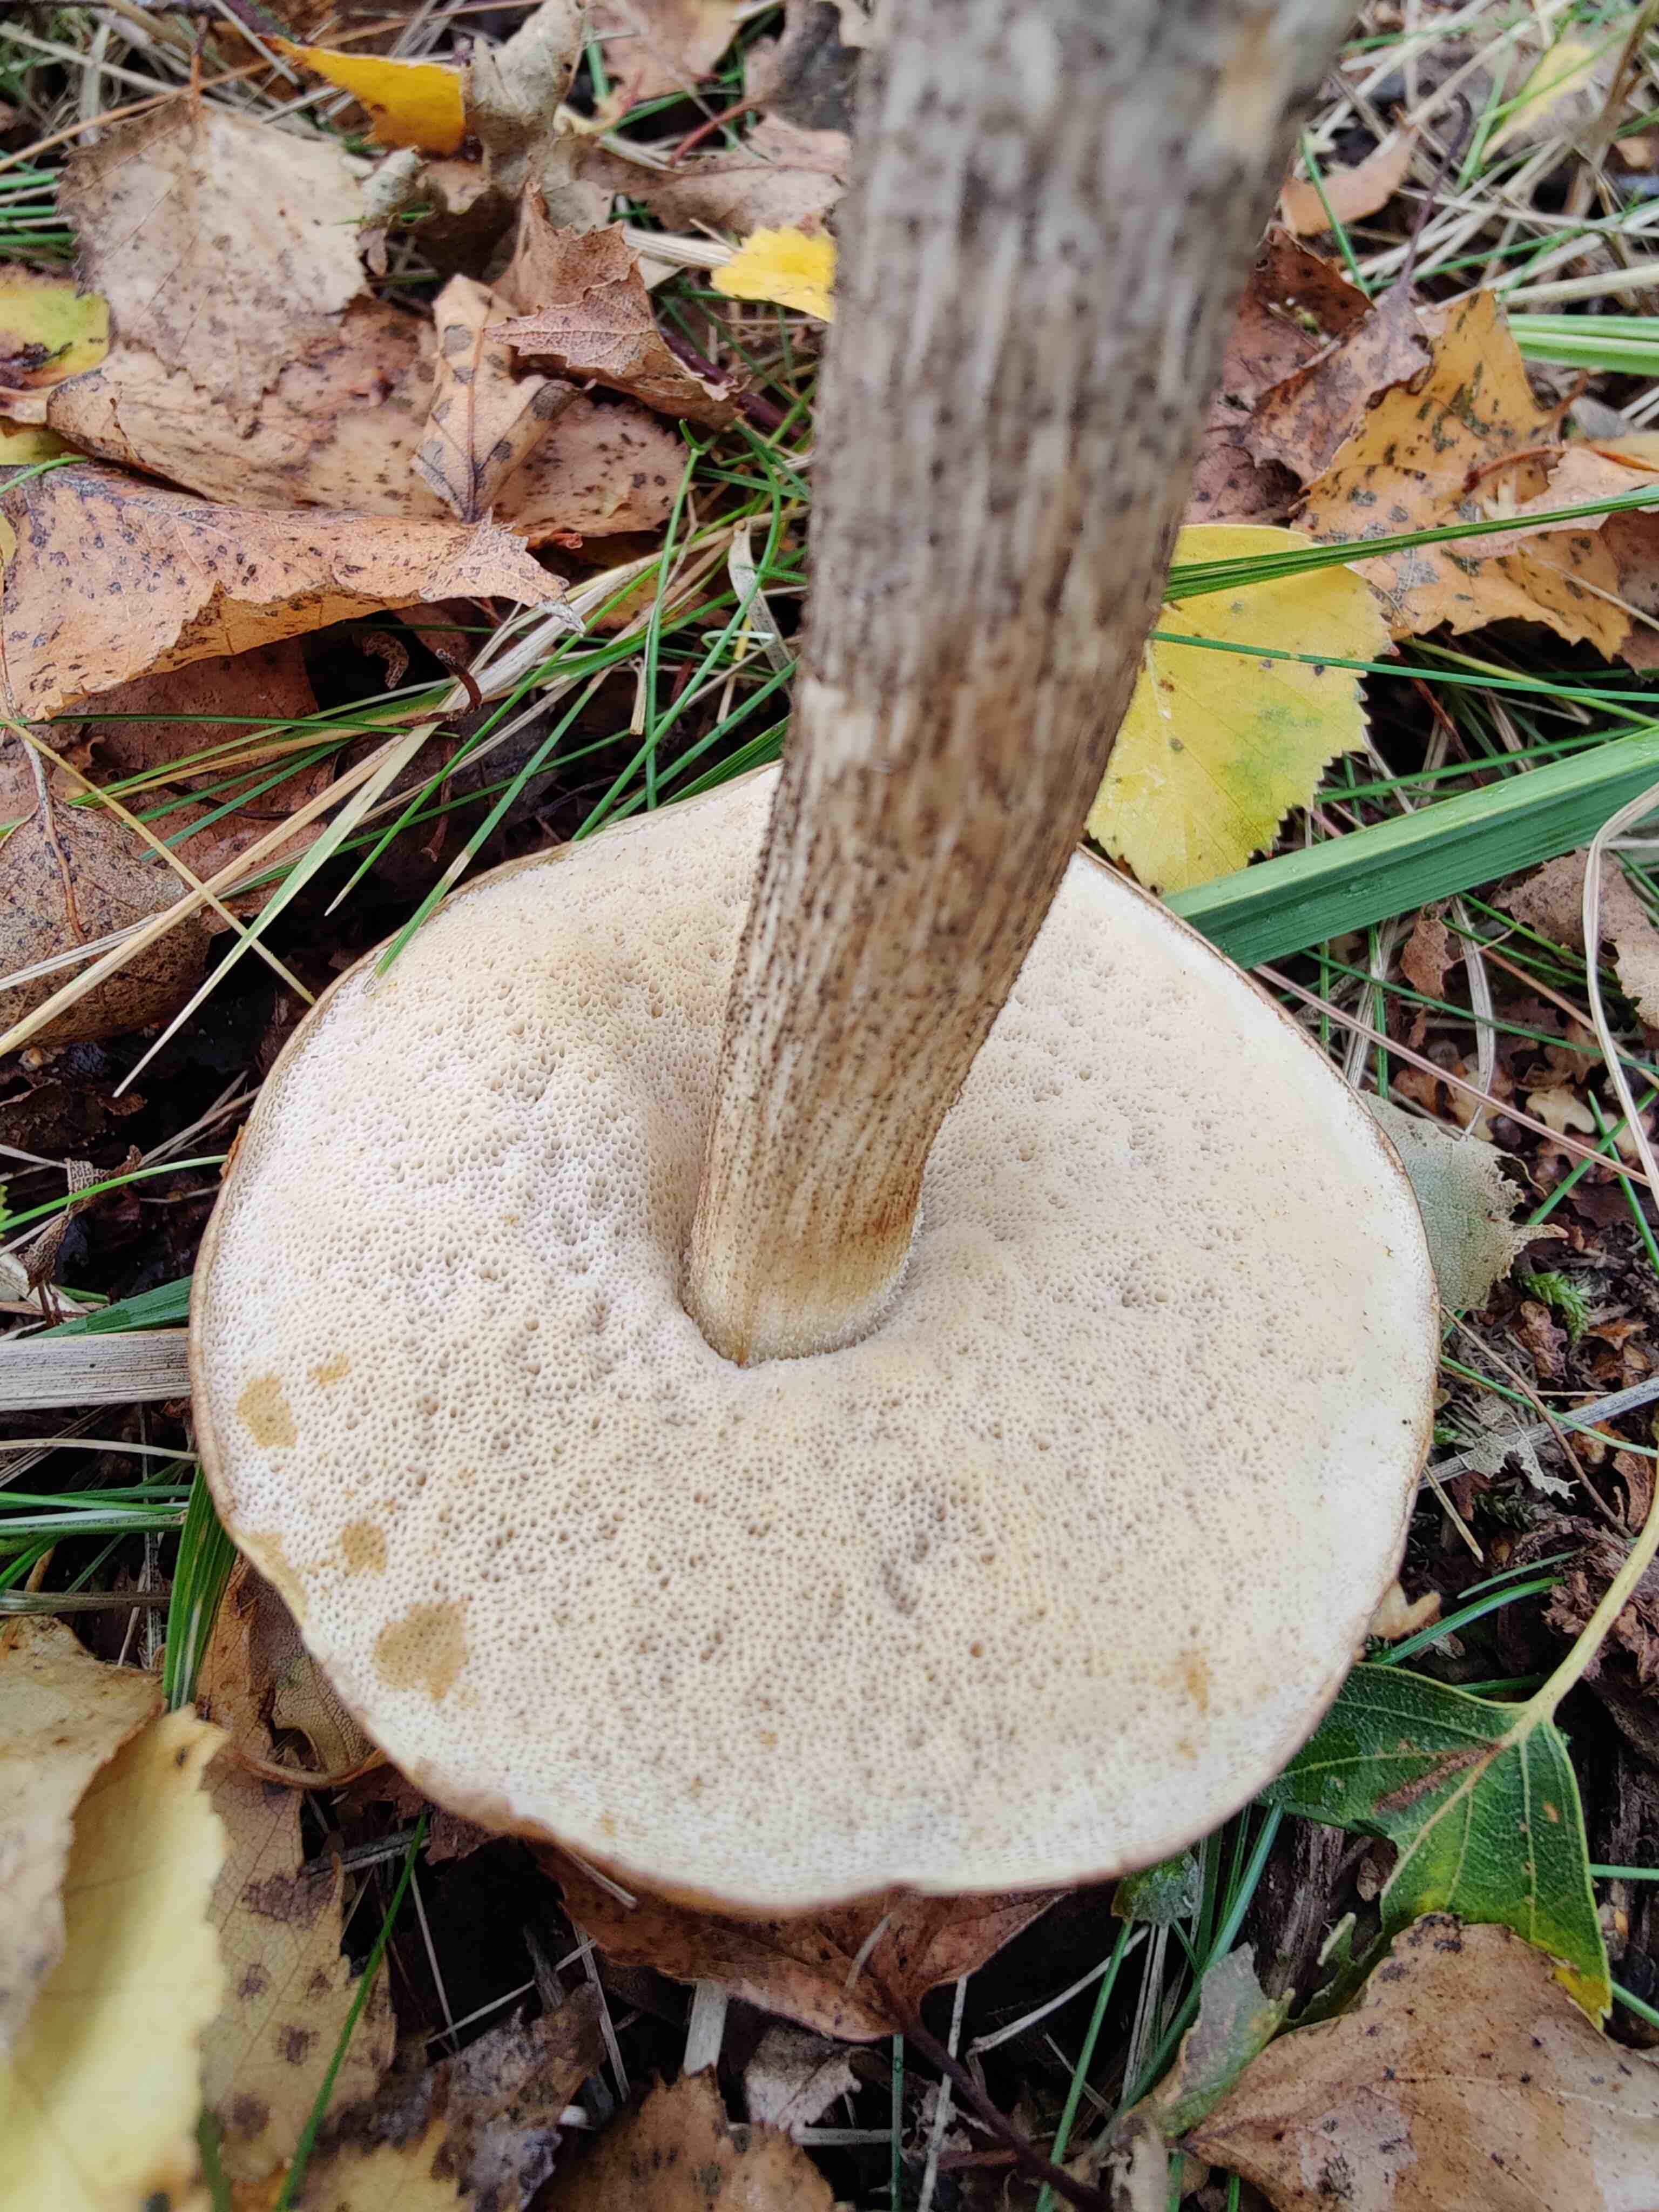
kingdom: Fungi
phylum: Basidiomycota
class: Agaricomycetes
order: Boletales
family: Boletaceae
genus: Leccinum
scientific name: Leccinum scabrum
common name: brun skælrørhat
